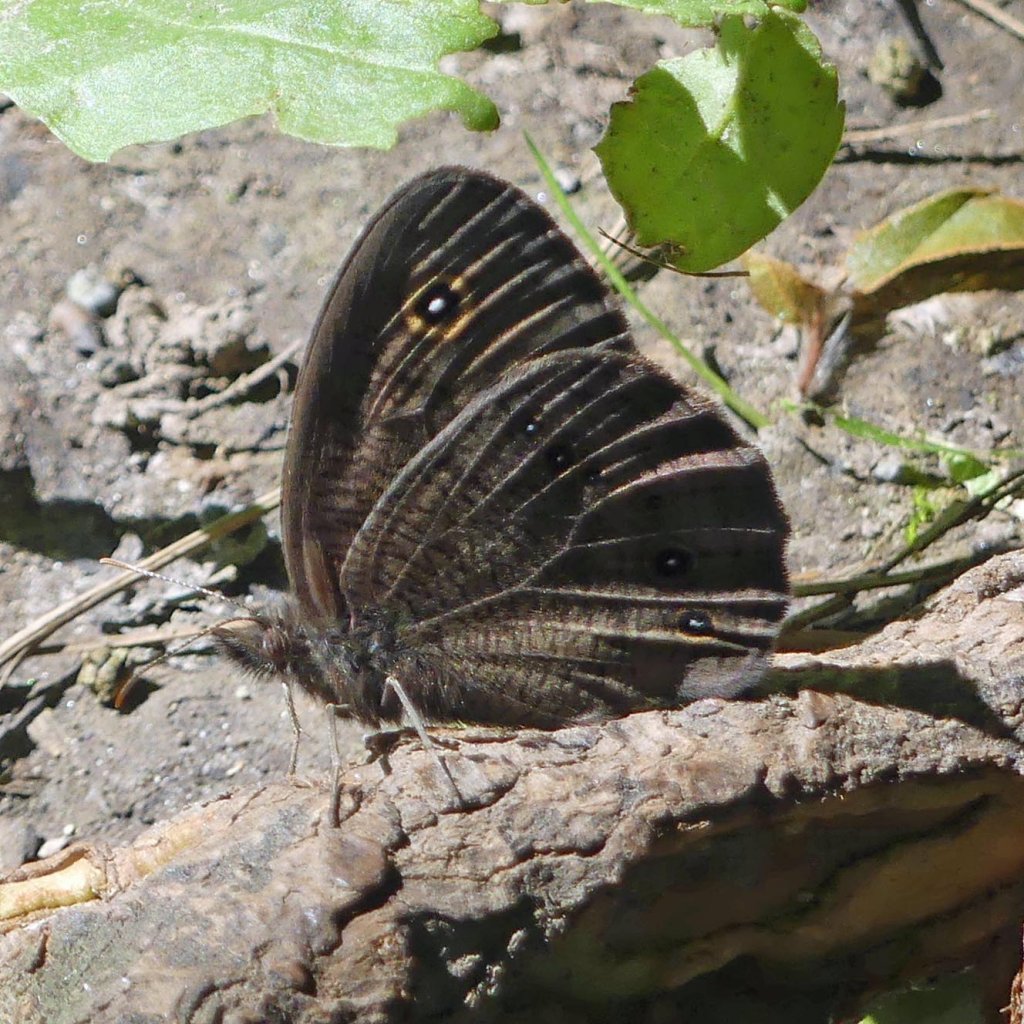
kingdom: Animalia
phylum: Arthropoda
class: Insecta
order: Lepidoptera
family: Nymphalidae
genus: Cercyonis
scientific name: Cercyonis pegala
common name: Common Wood-Nymph
